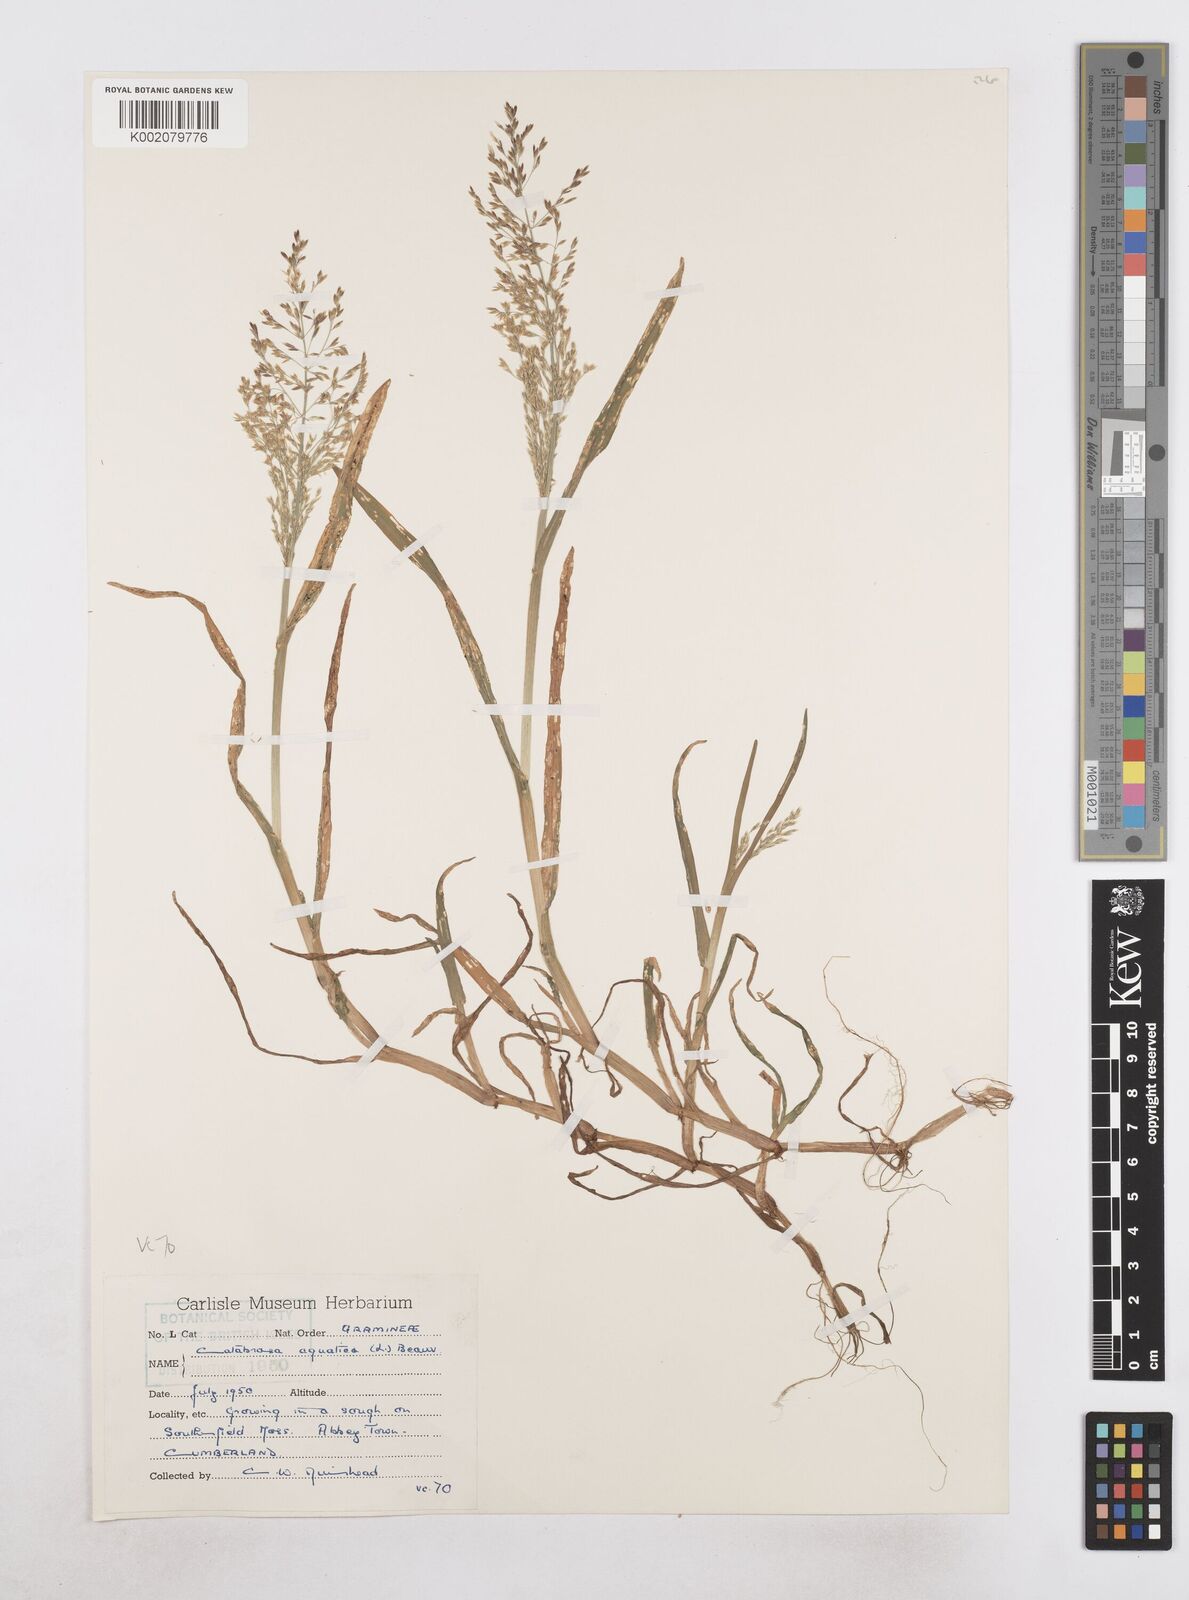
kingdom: Plantae
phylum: Tracheophyta
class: Liliopsida
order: Poales
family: Poaceae
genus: Catabrosa
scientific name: Catabrosa aquatica
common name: Whorl-grass
